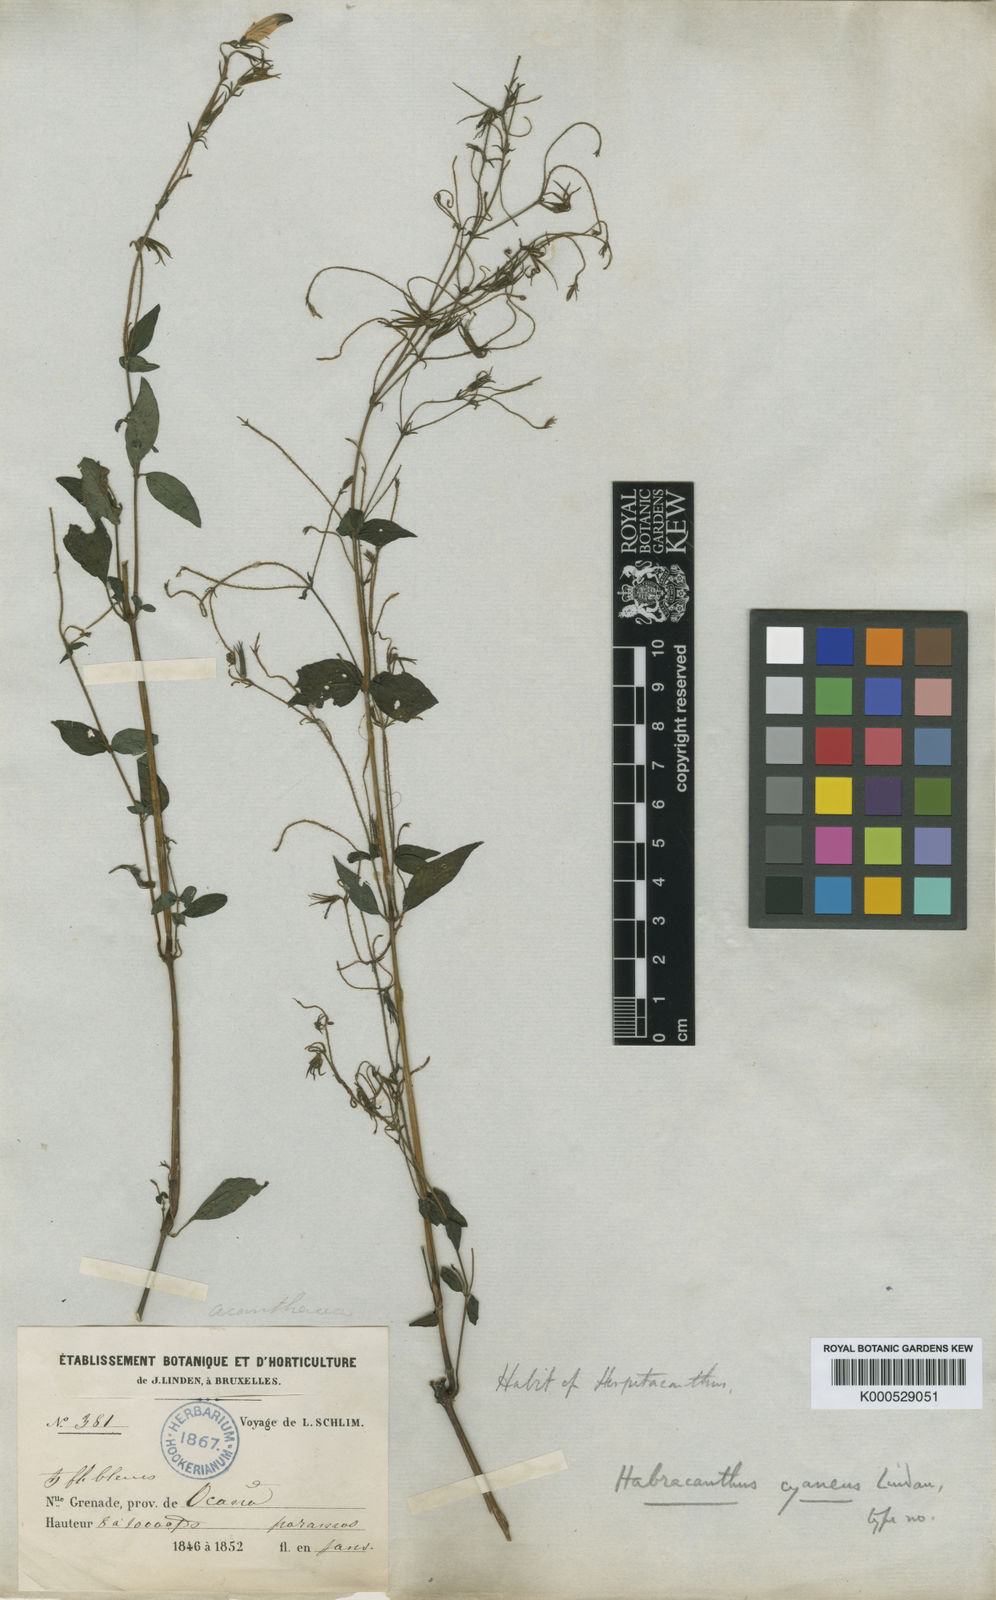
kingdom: Plantae
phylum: Tracheophyta
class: Magnoliopsida
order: Lamiales
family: Acanthaceae
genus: Stenostephanus
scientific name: Stenostephanus cyaneus
